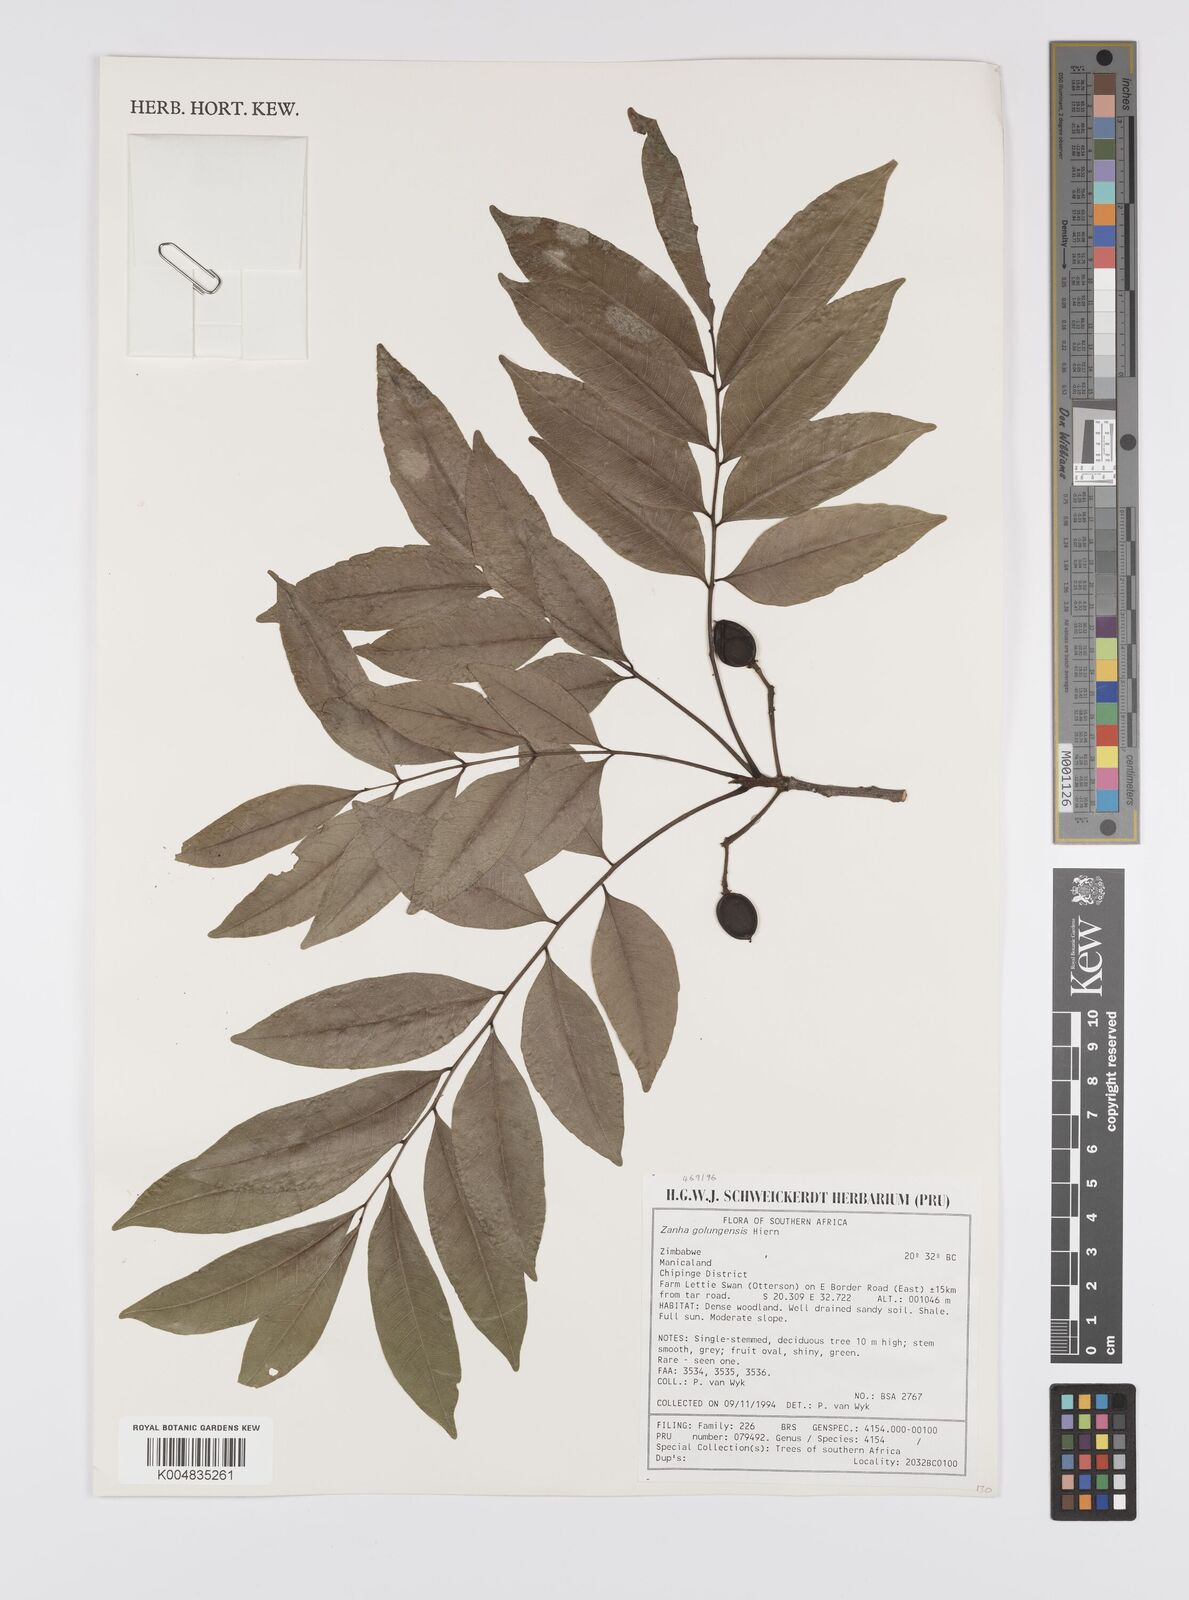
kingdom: Plantae
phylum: Tracheophyta
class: Magnoliopsida
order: Sapindales
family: Sapindaceae
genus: Zanha
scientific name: Zanha golungensis
